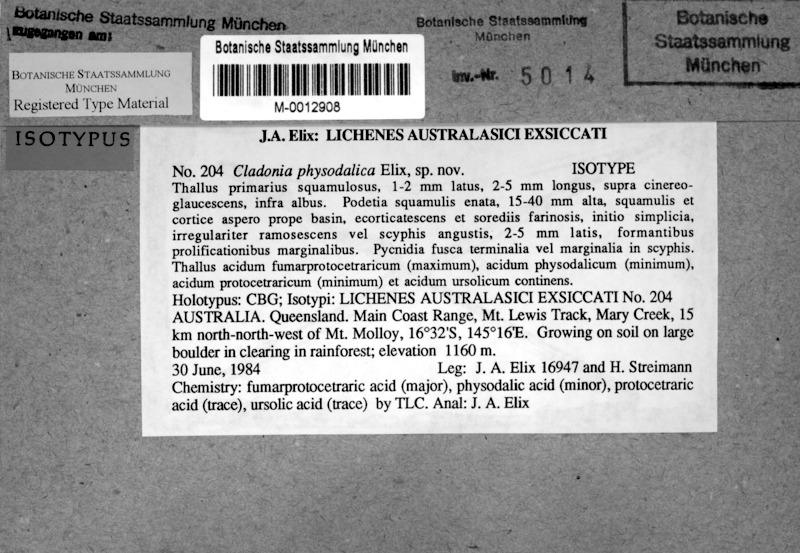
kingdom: Fungi
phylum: Ascomycota
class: Lecanoromycetes
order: Lecanorales
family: Cladoniaceae
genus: Cladonia
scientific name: Cladonia borbonica
